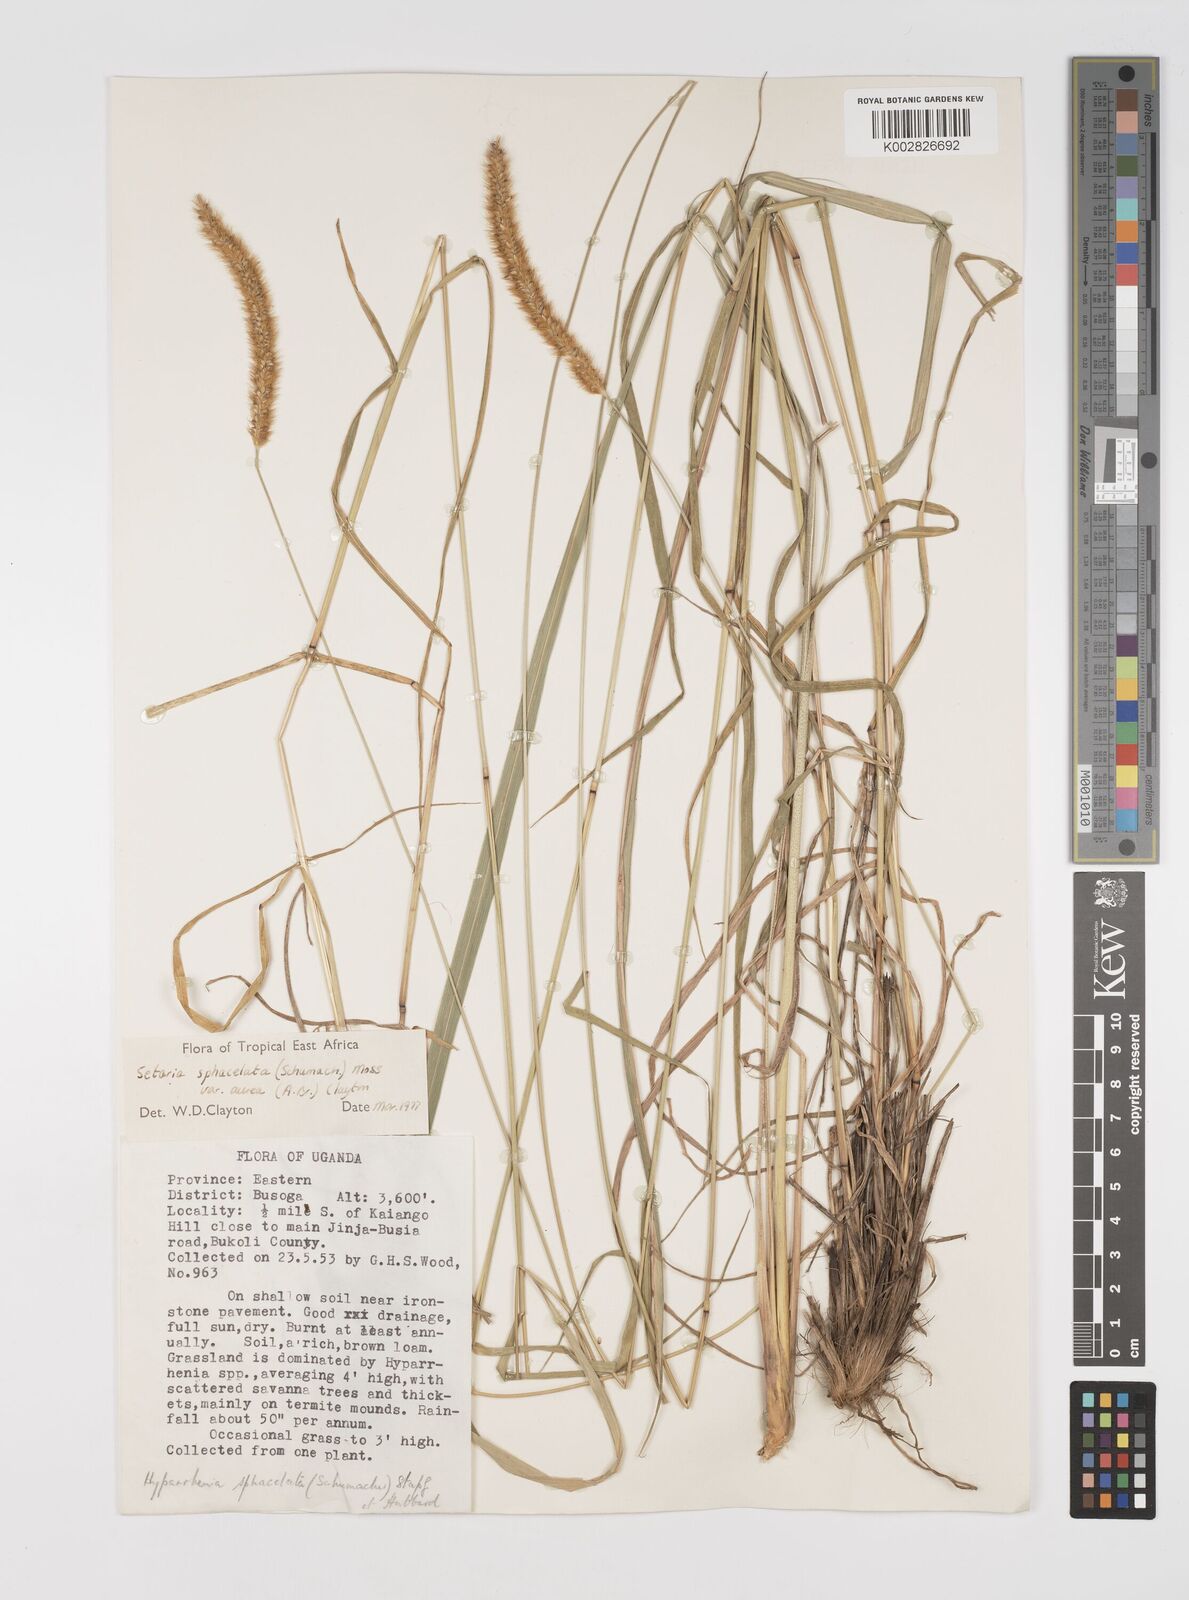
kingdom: Plantae
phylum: Tracheophyta
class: Liliopsida
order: Poales
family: Poaceae
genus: Setaria
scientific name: Setaria sphacelata
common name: African bristlegrass
